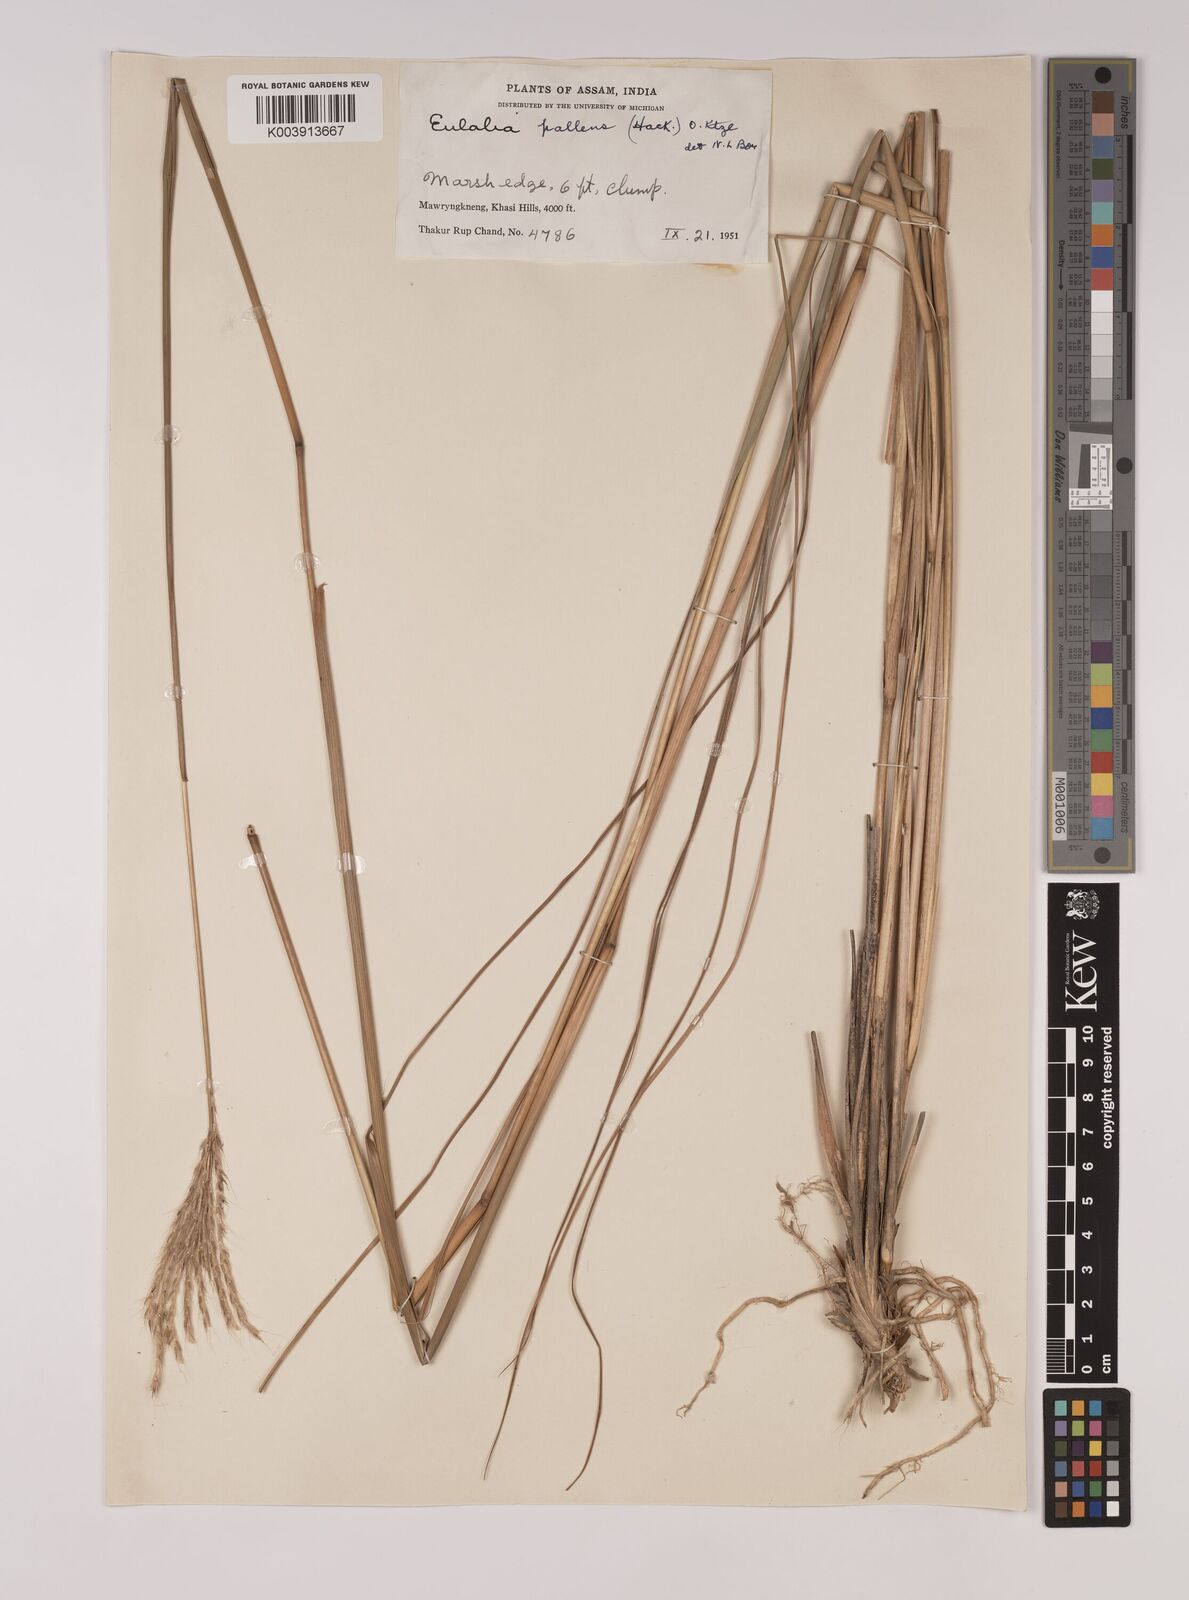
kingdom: Plantae
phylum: Tracheophyta
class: Liliopsida
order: Poales
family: Poaceae
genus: Eulalia
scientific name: Eulalia pallens
